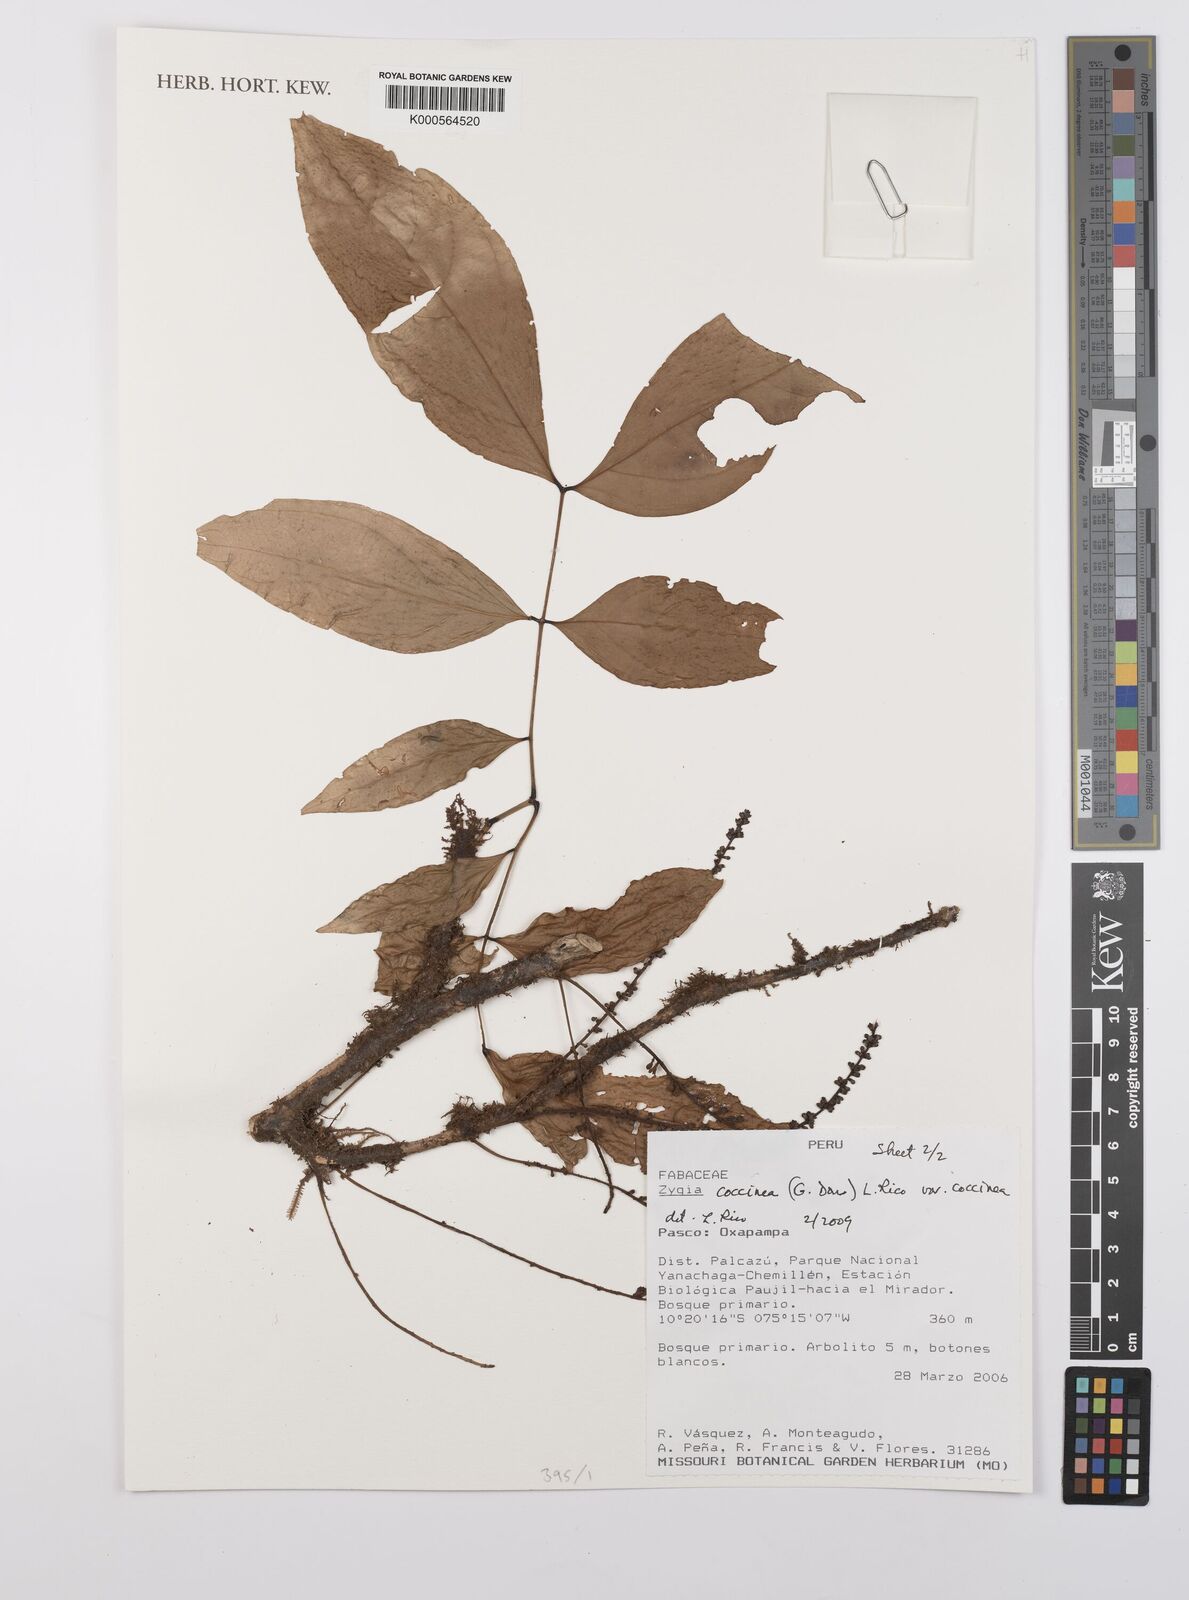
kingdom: Plantae
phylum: Tracheophyta
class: Magnoliopsida
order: Fabales
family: Fabaceae
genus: Zygia
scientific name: Zygia coccinea
